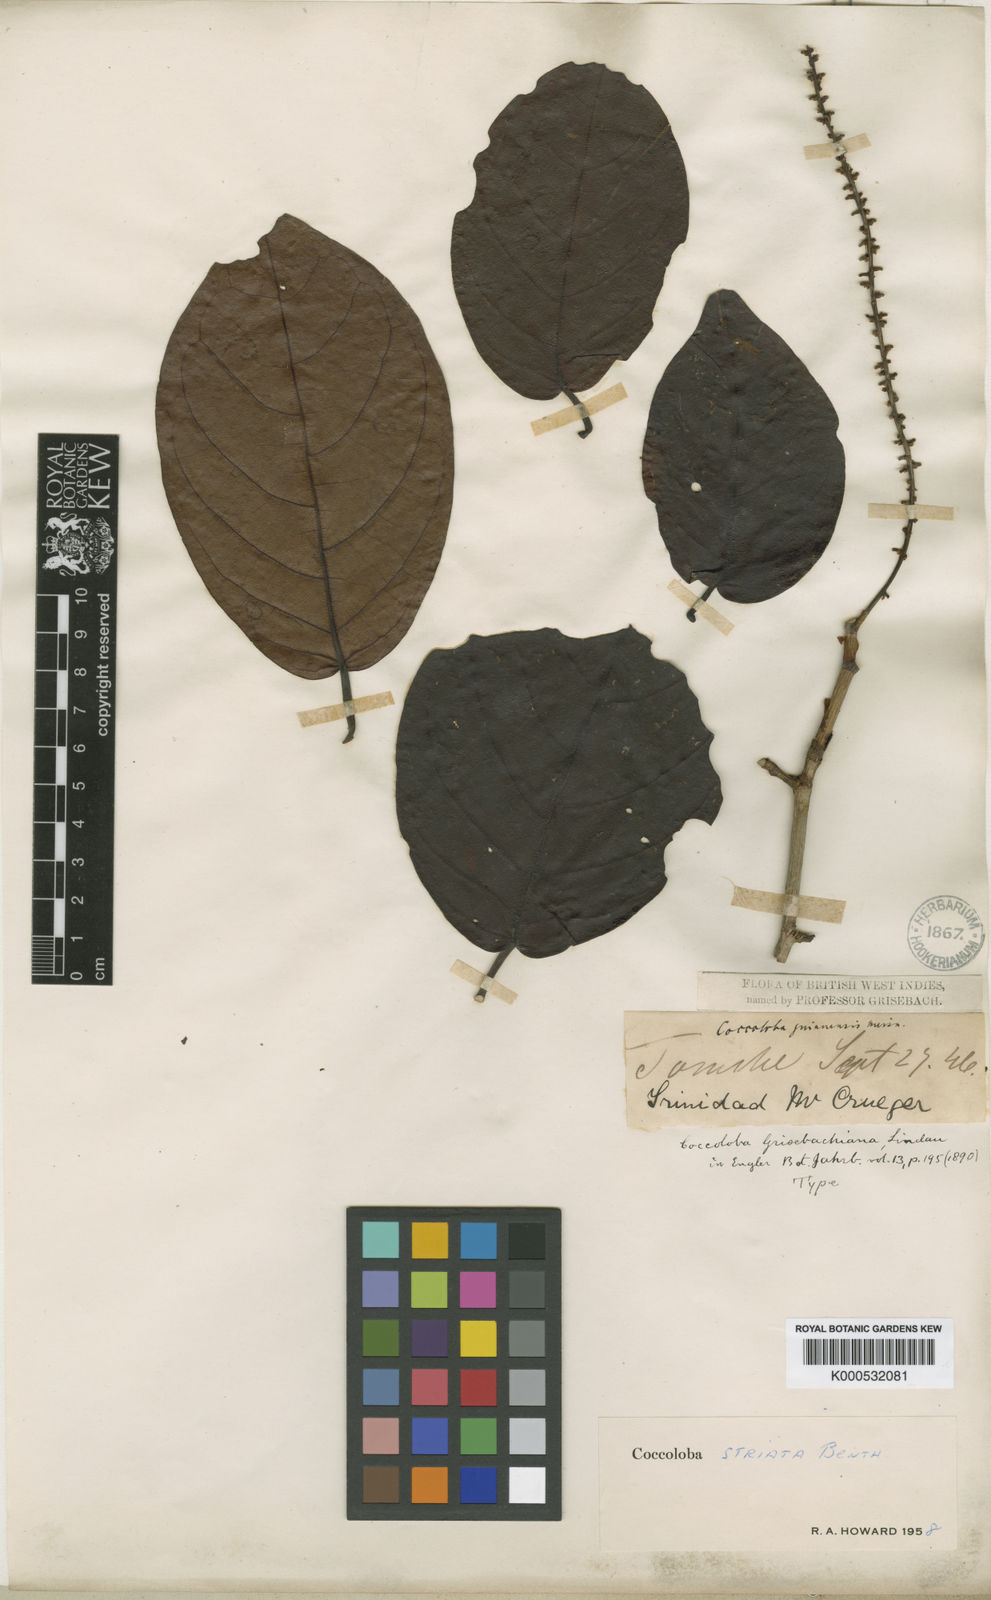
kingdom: Plantae
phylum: Tracheophyta
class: Magnoliopsida
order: Caryophyllales
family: Polygonaceae
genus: Coccoloba
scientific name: Coccoloba striata
